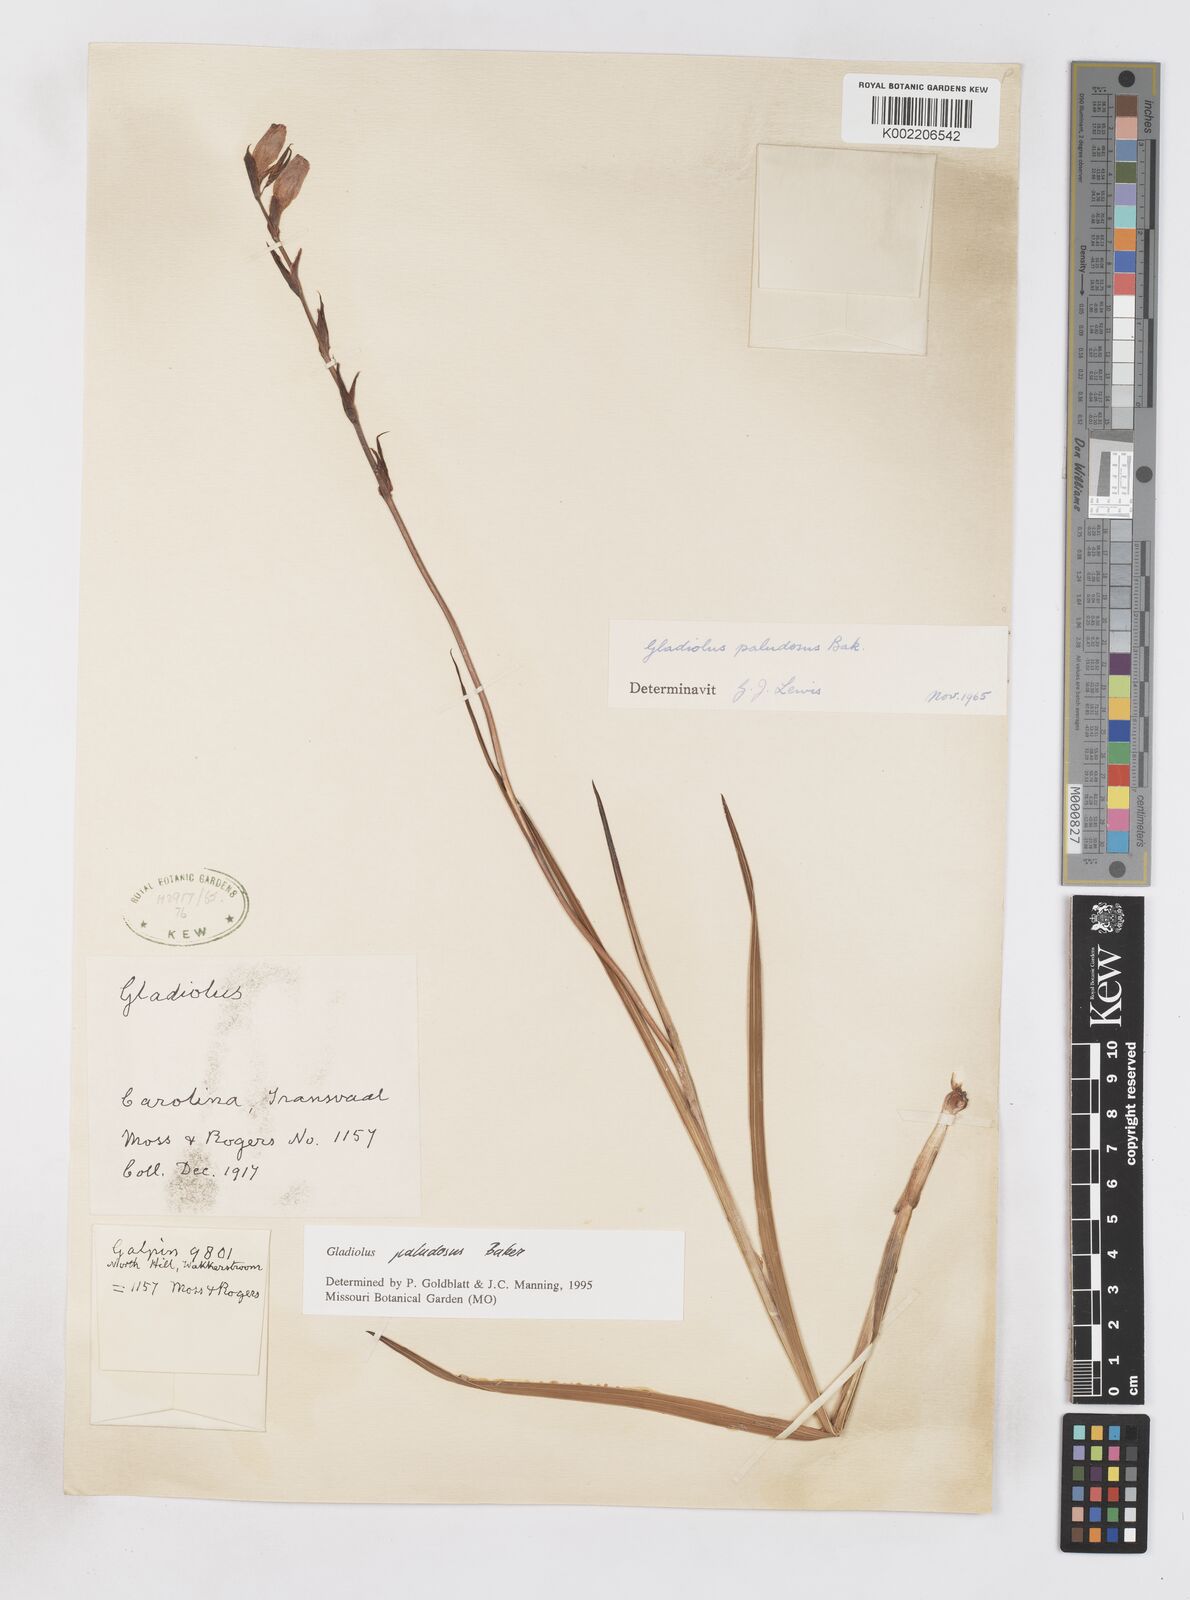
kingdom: Plantae
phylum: Tracheophyta
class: Liliopsida
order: Asparagales
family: Iridaceae
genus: Gladiolus
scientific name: Gladiolus paludosus
